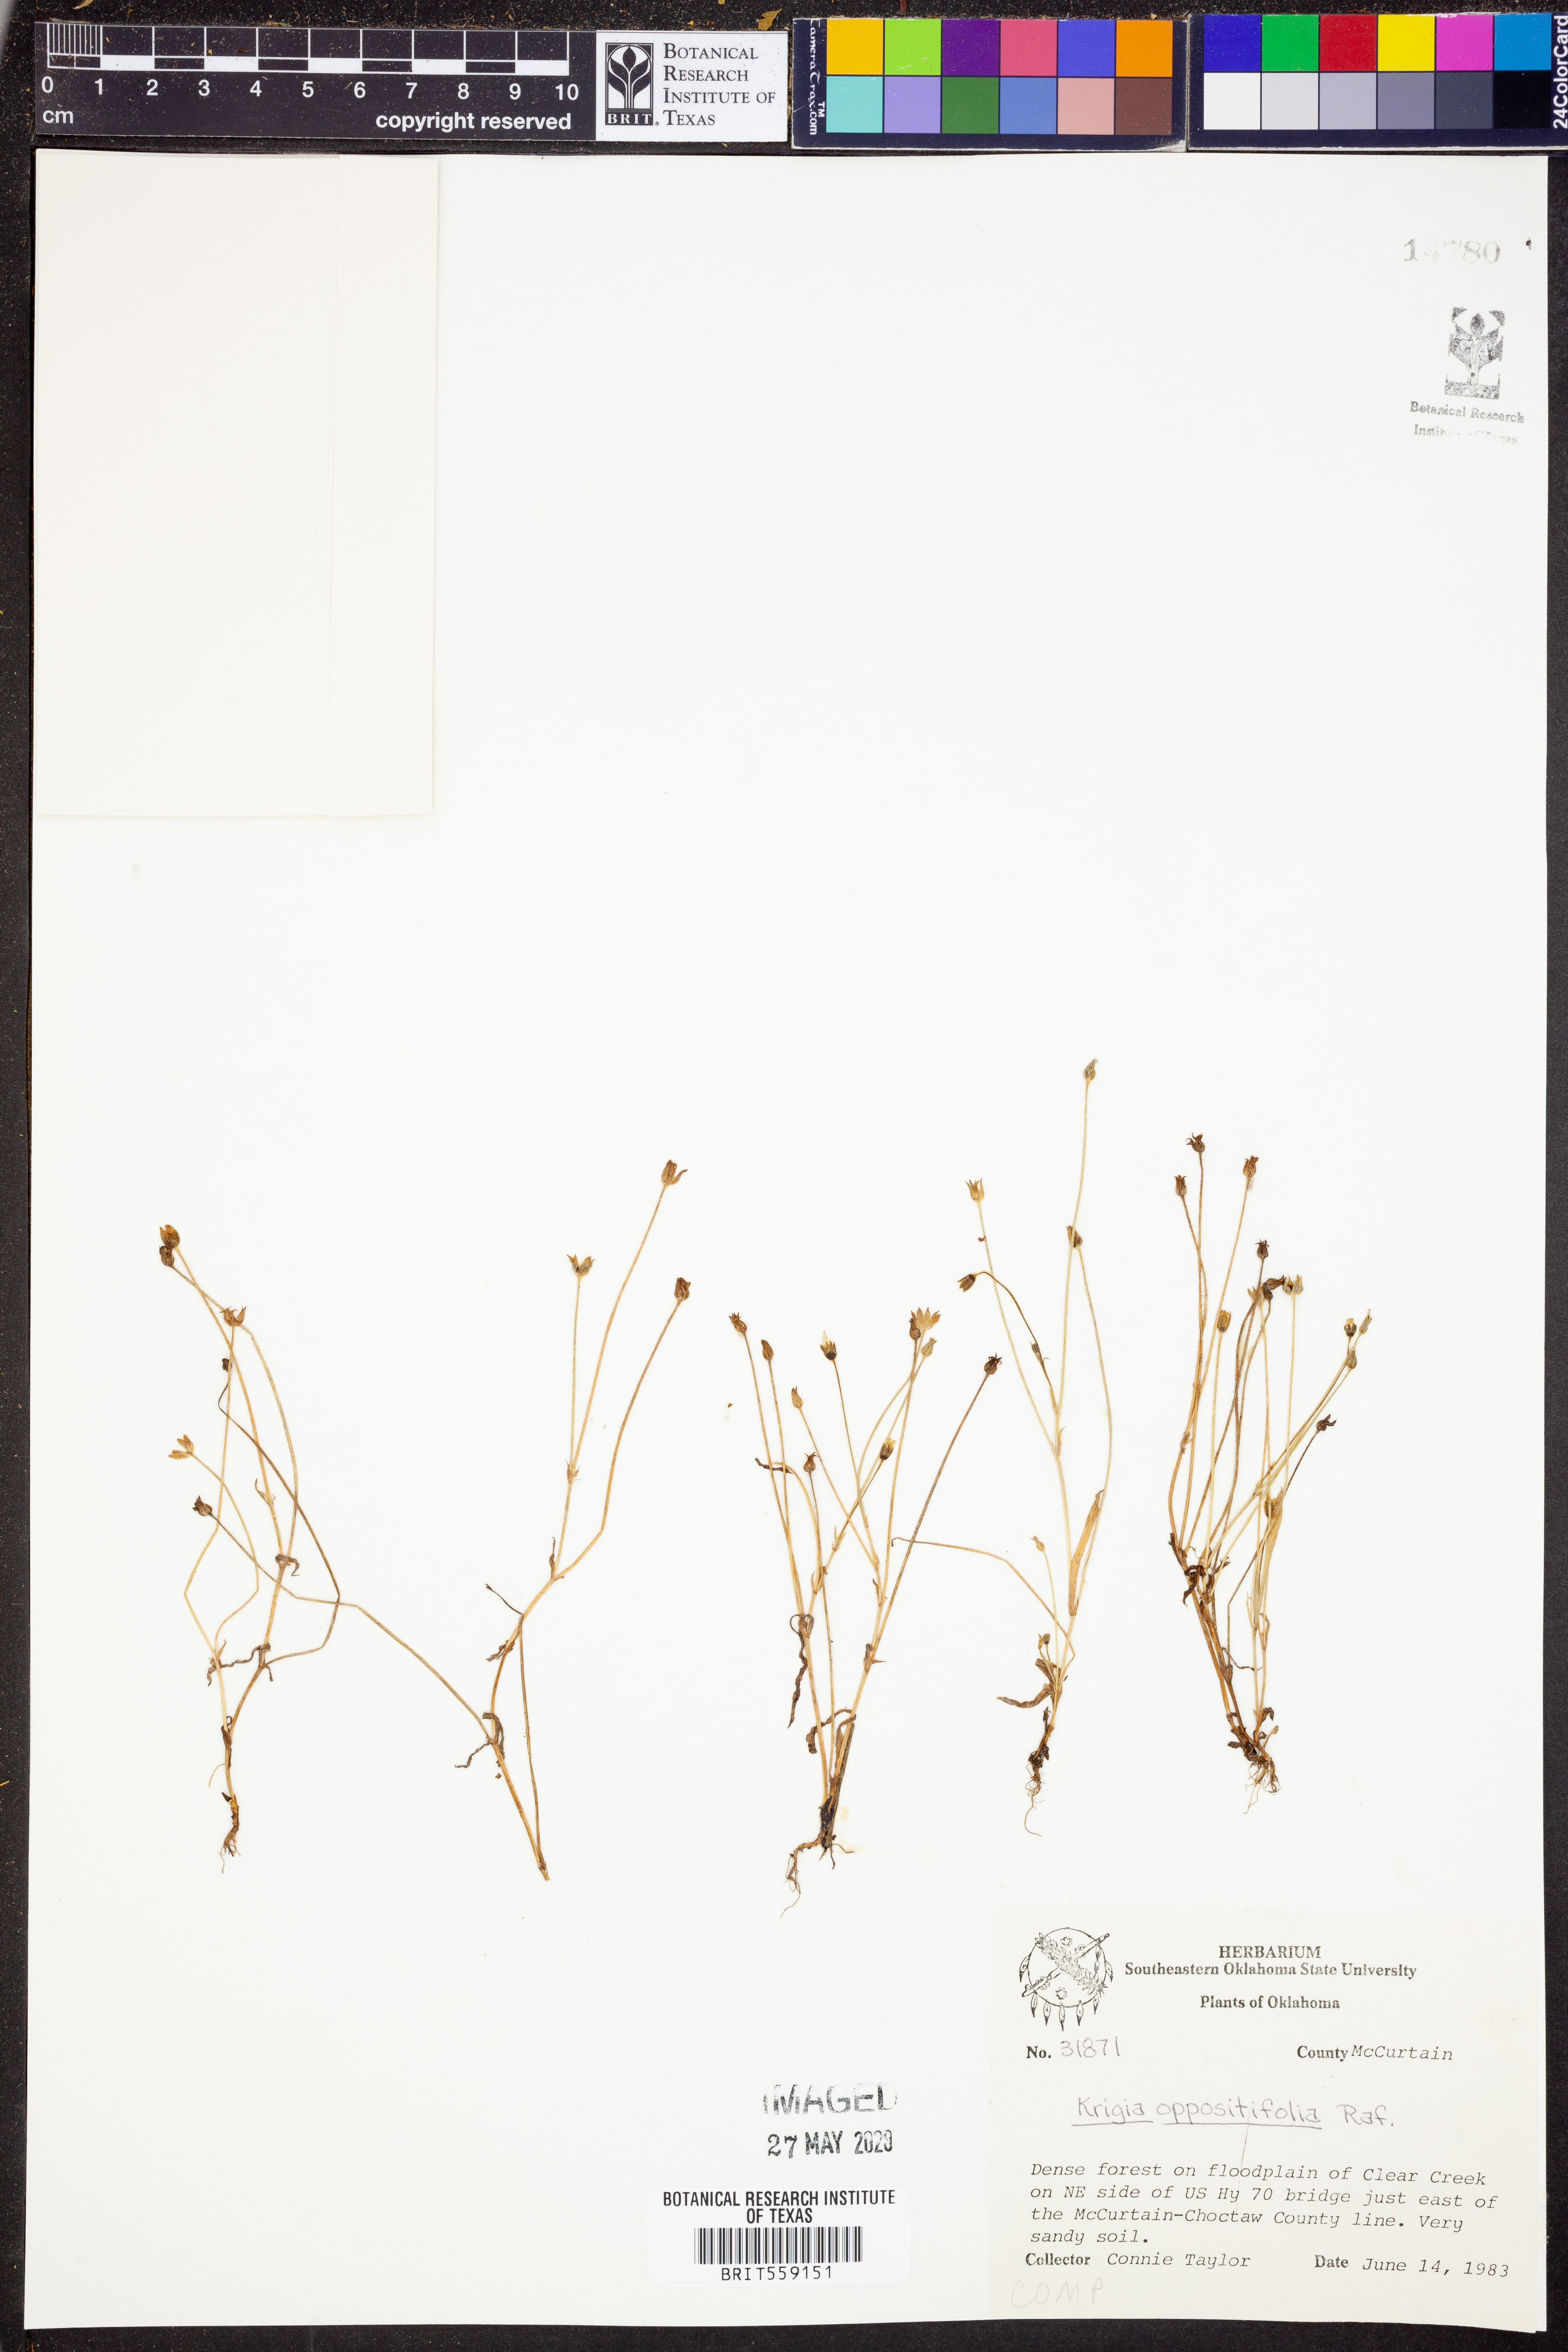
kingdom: Plantae
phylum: Tracheophyta
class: Magnoliopsida
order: Asterales
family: Asteraceae
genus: Krigia
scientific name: Krigia cespitosa
